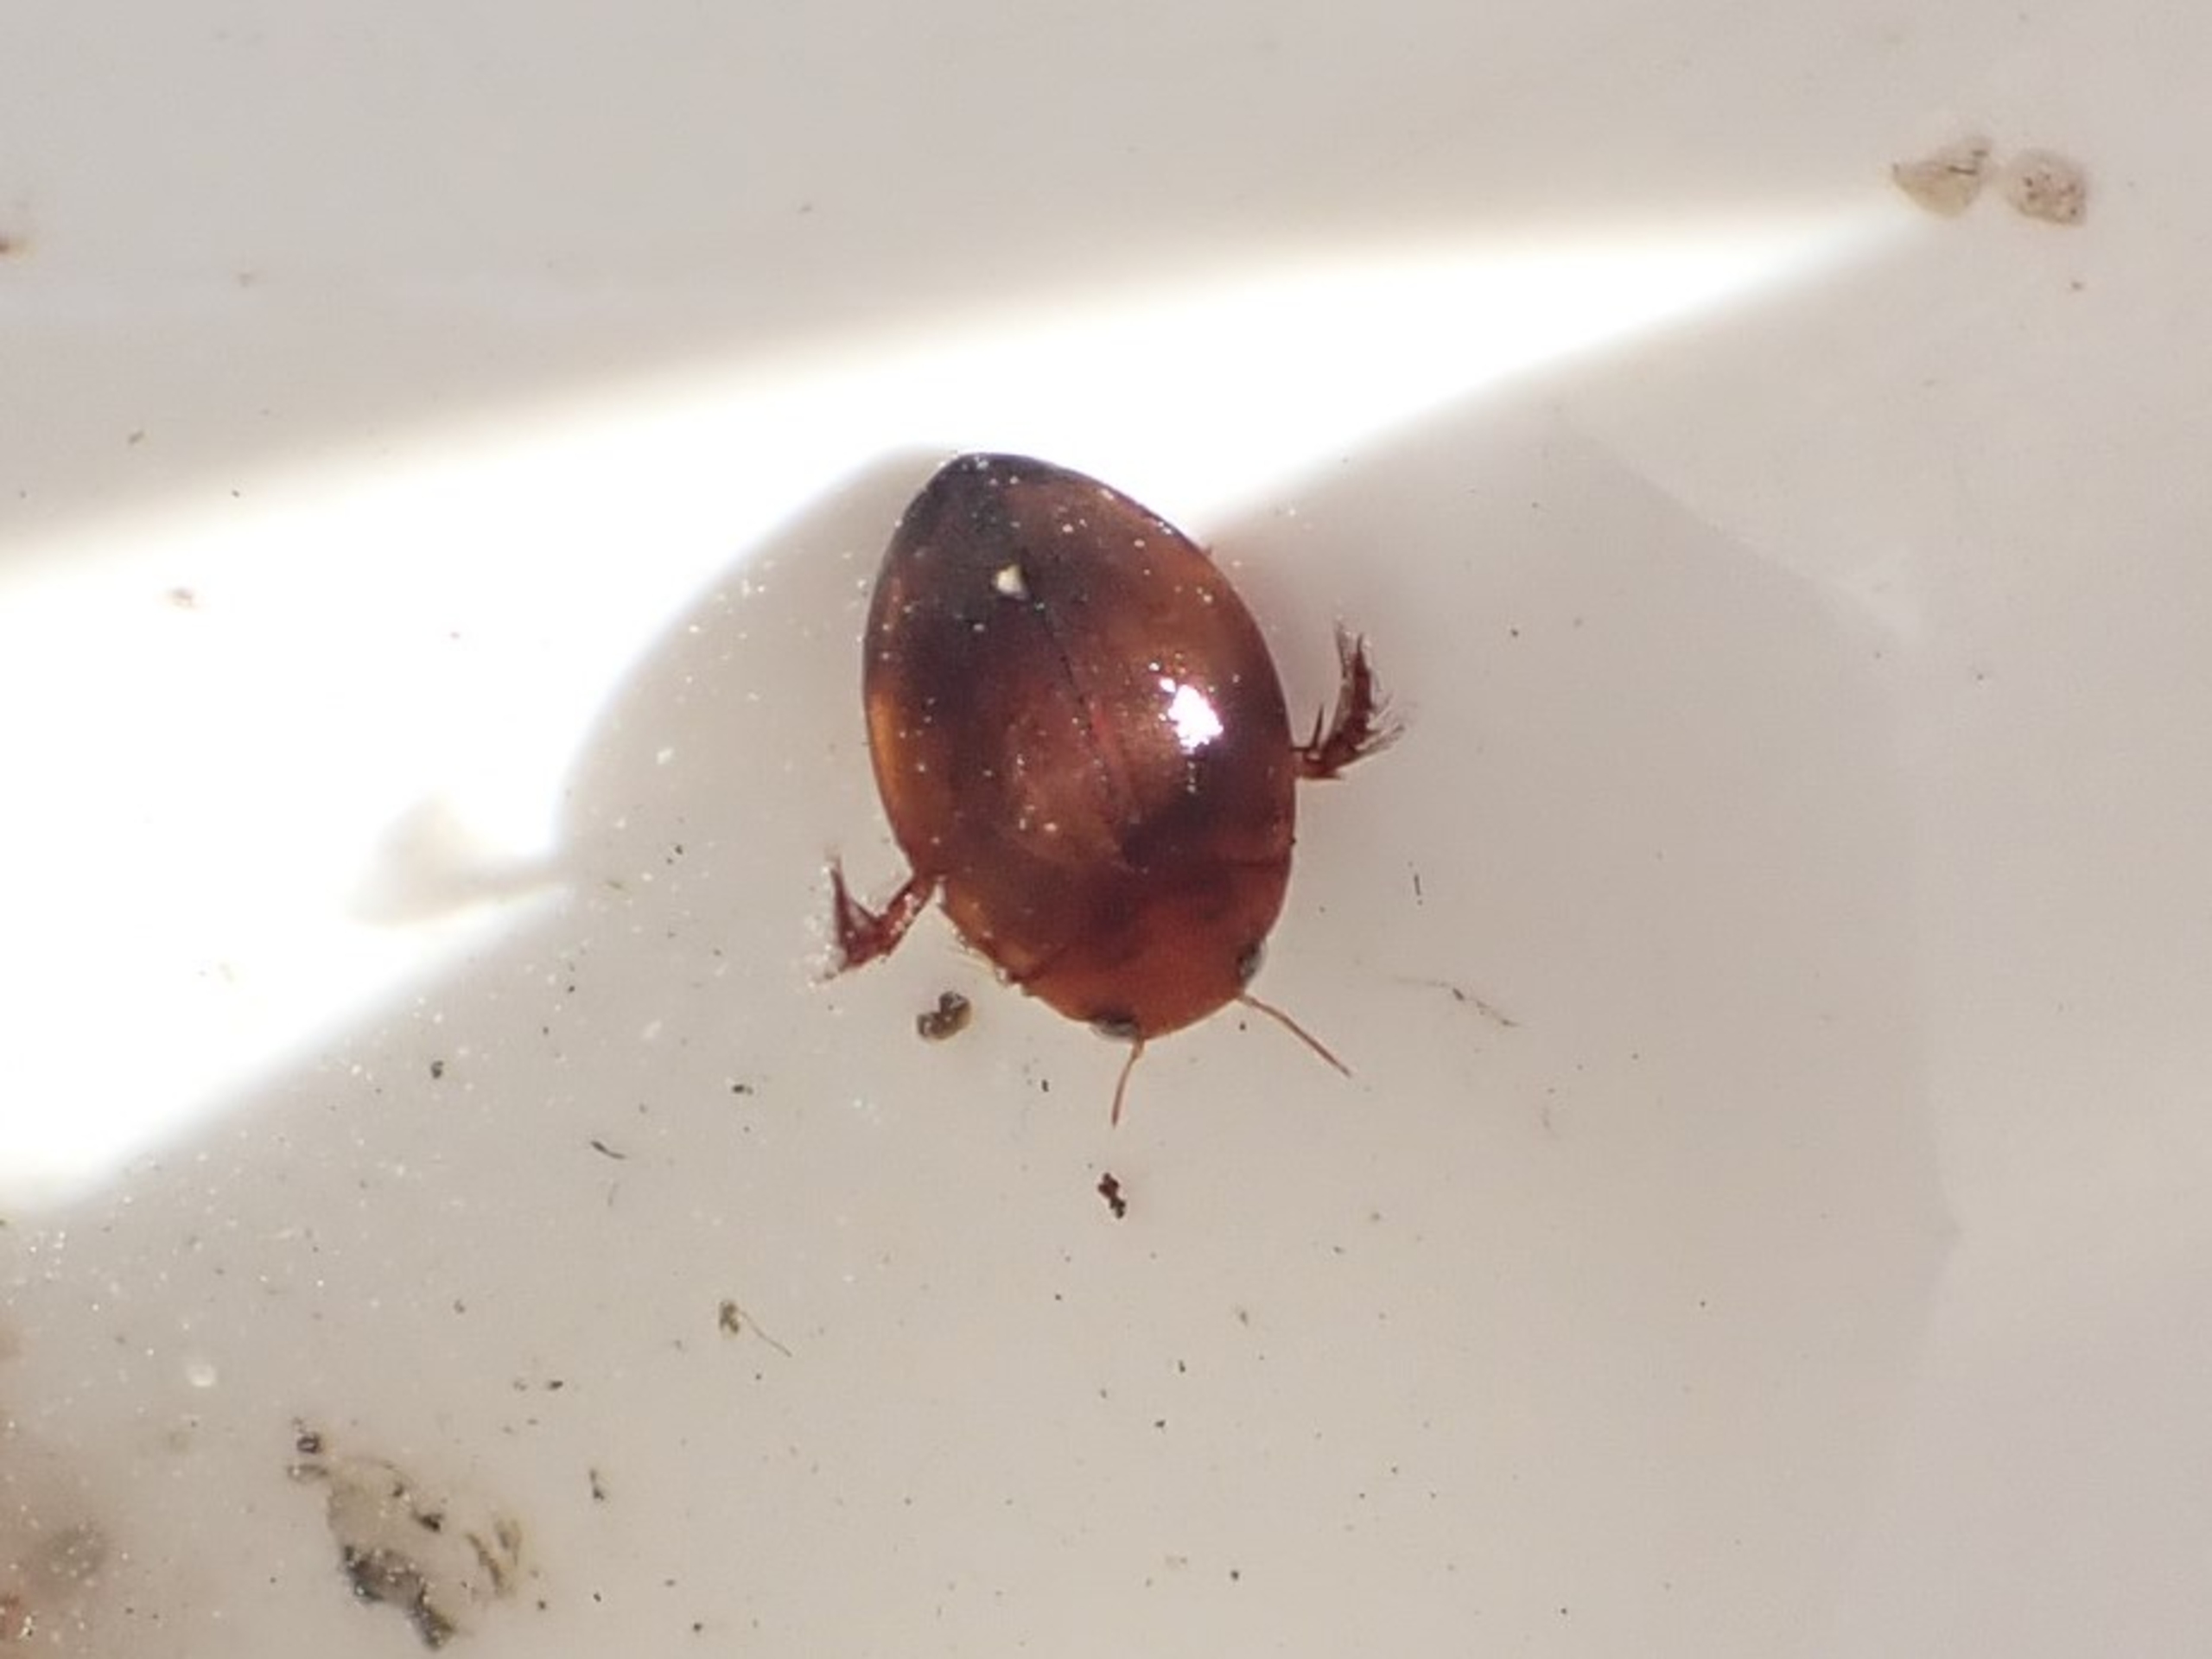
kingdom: Animalia
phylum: Arthropoda
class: Insecta
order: Coleoptera
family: Dytiscidae
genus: Hyphydrus
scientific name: Hyphydrus ovatus
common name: Rød kuglevandkalv
